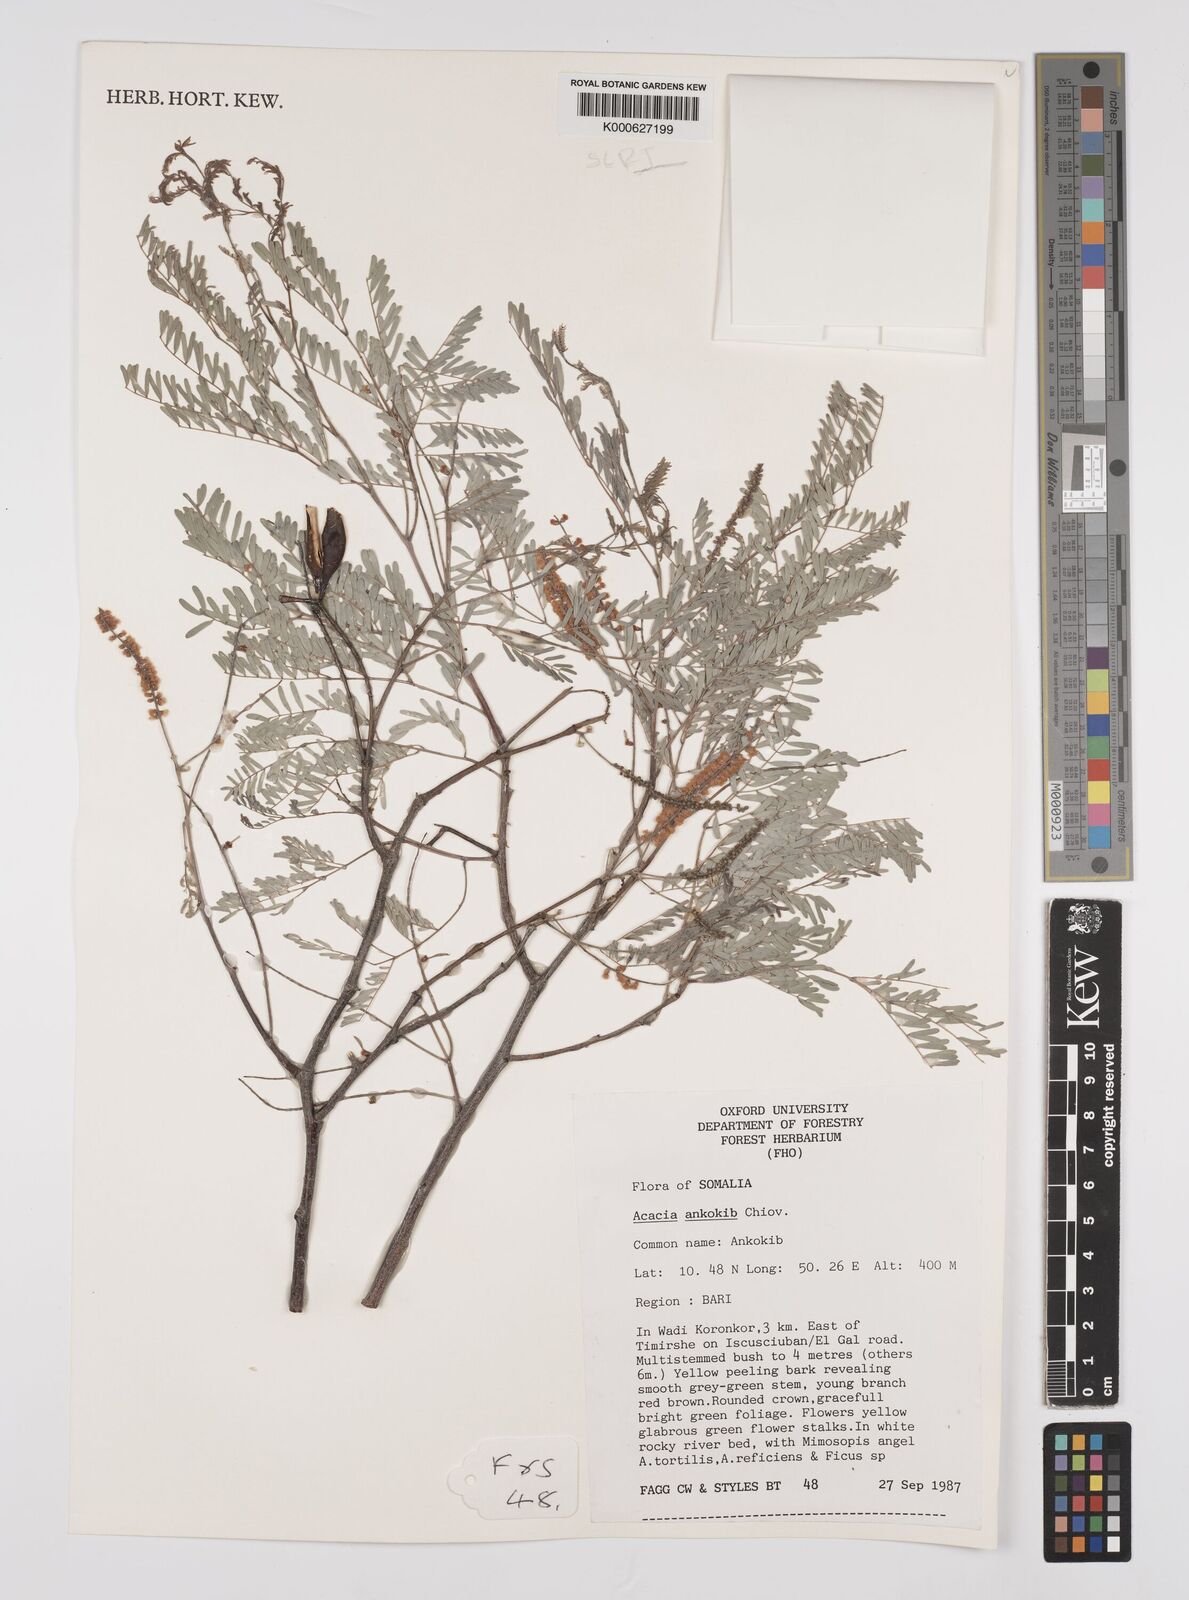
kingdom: Plantae
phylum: Tracheophyta
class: Magnoliopsida
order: Fabales
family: Fabaceae
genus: Senegalia
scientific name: Senegalia ankokib
